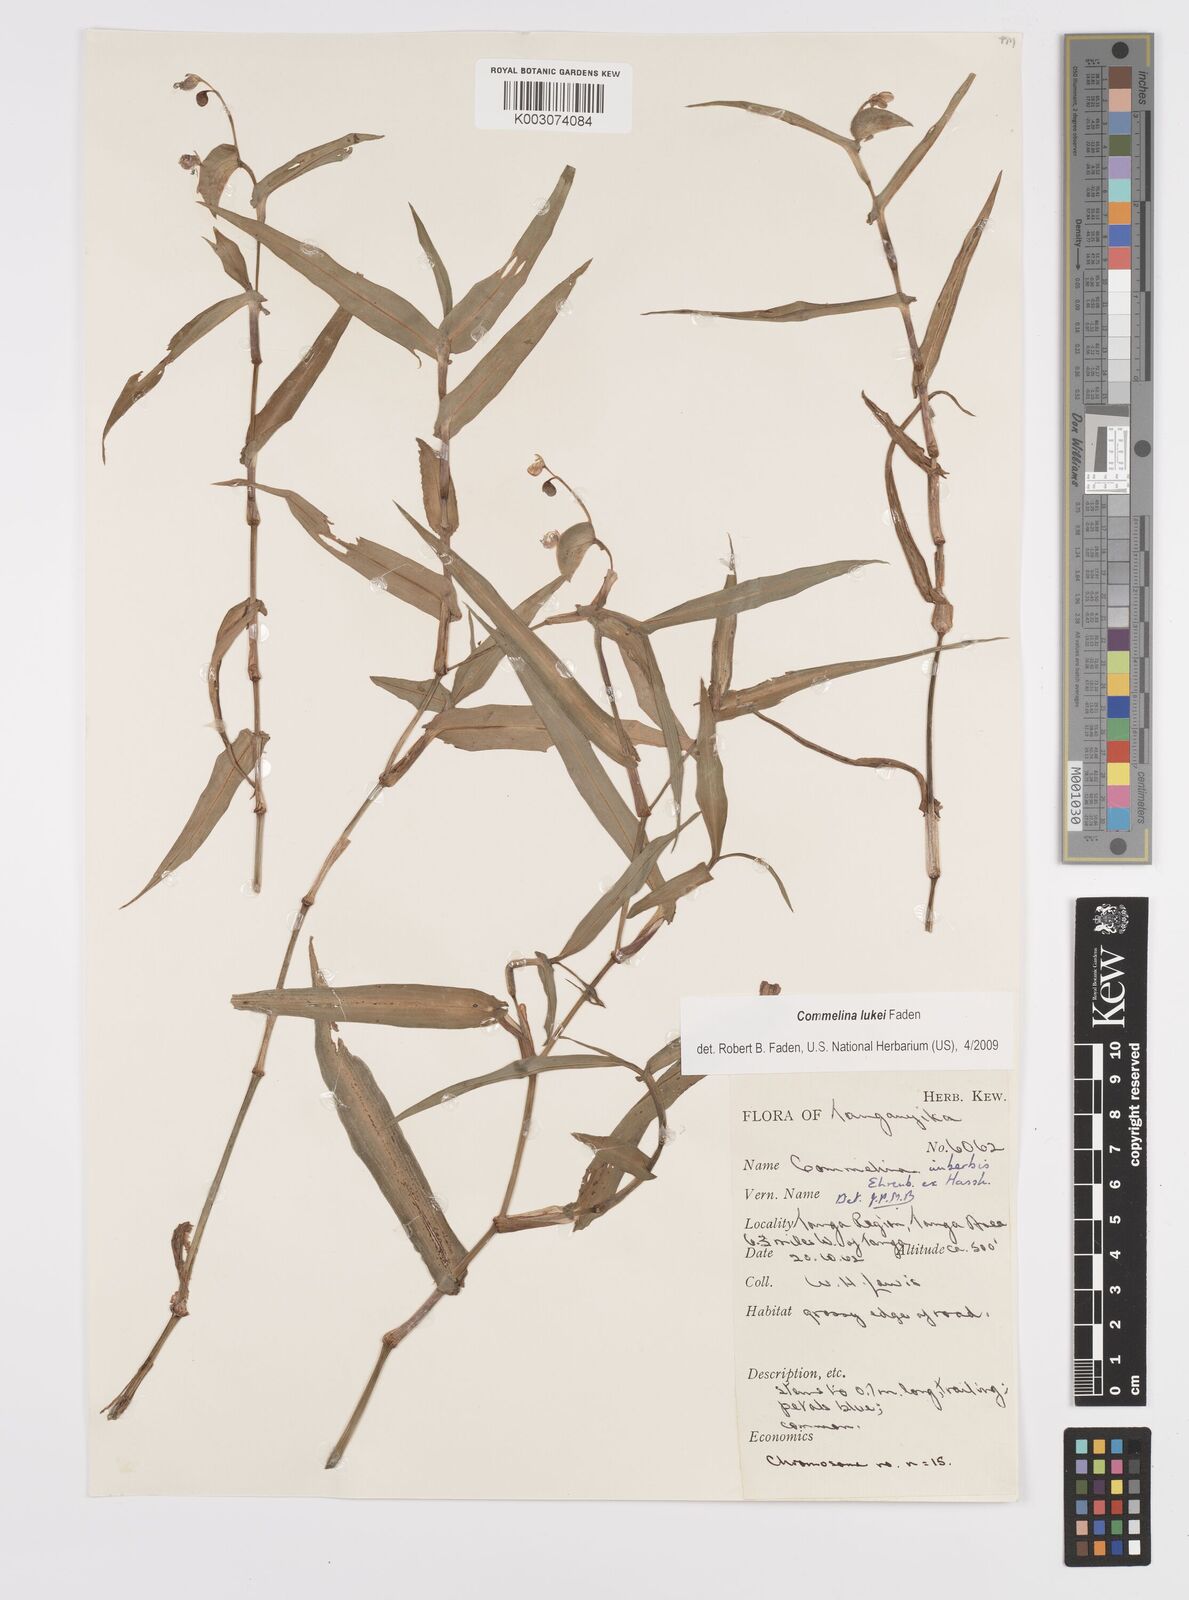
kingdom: Plantae
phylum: Tracheophyta
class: Liliopsida
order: Commelinales
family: Commelinaceae
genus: Commelina
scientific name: Commelina lukei
